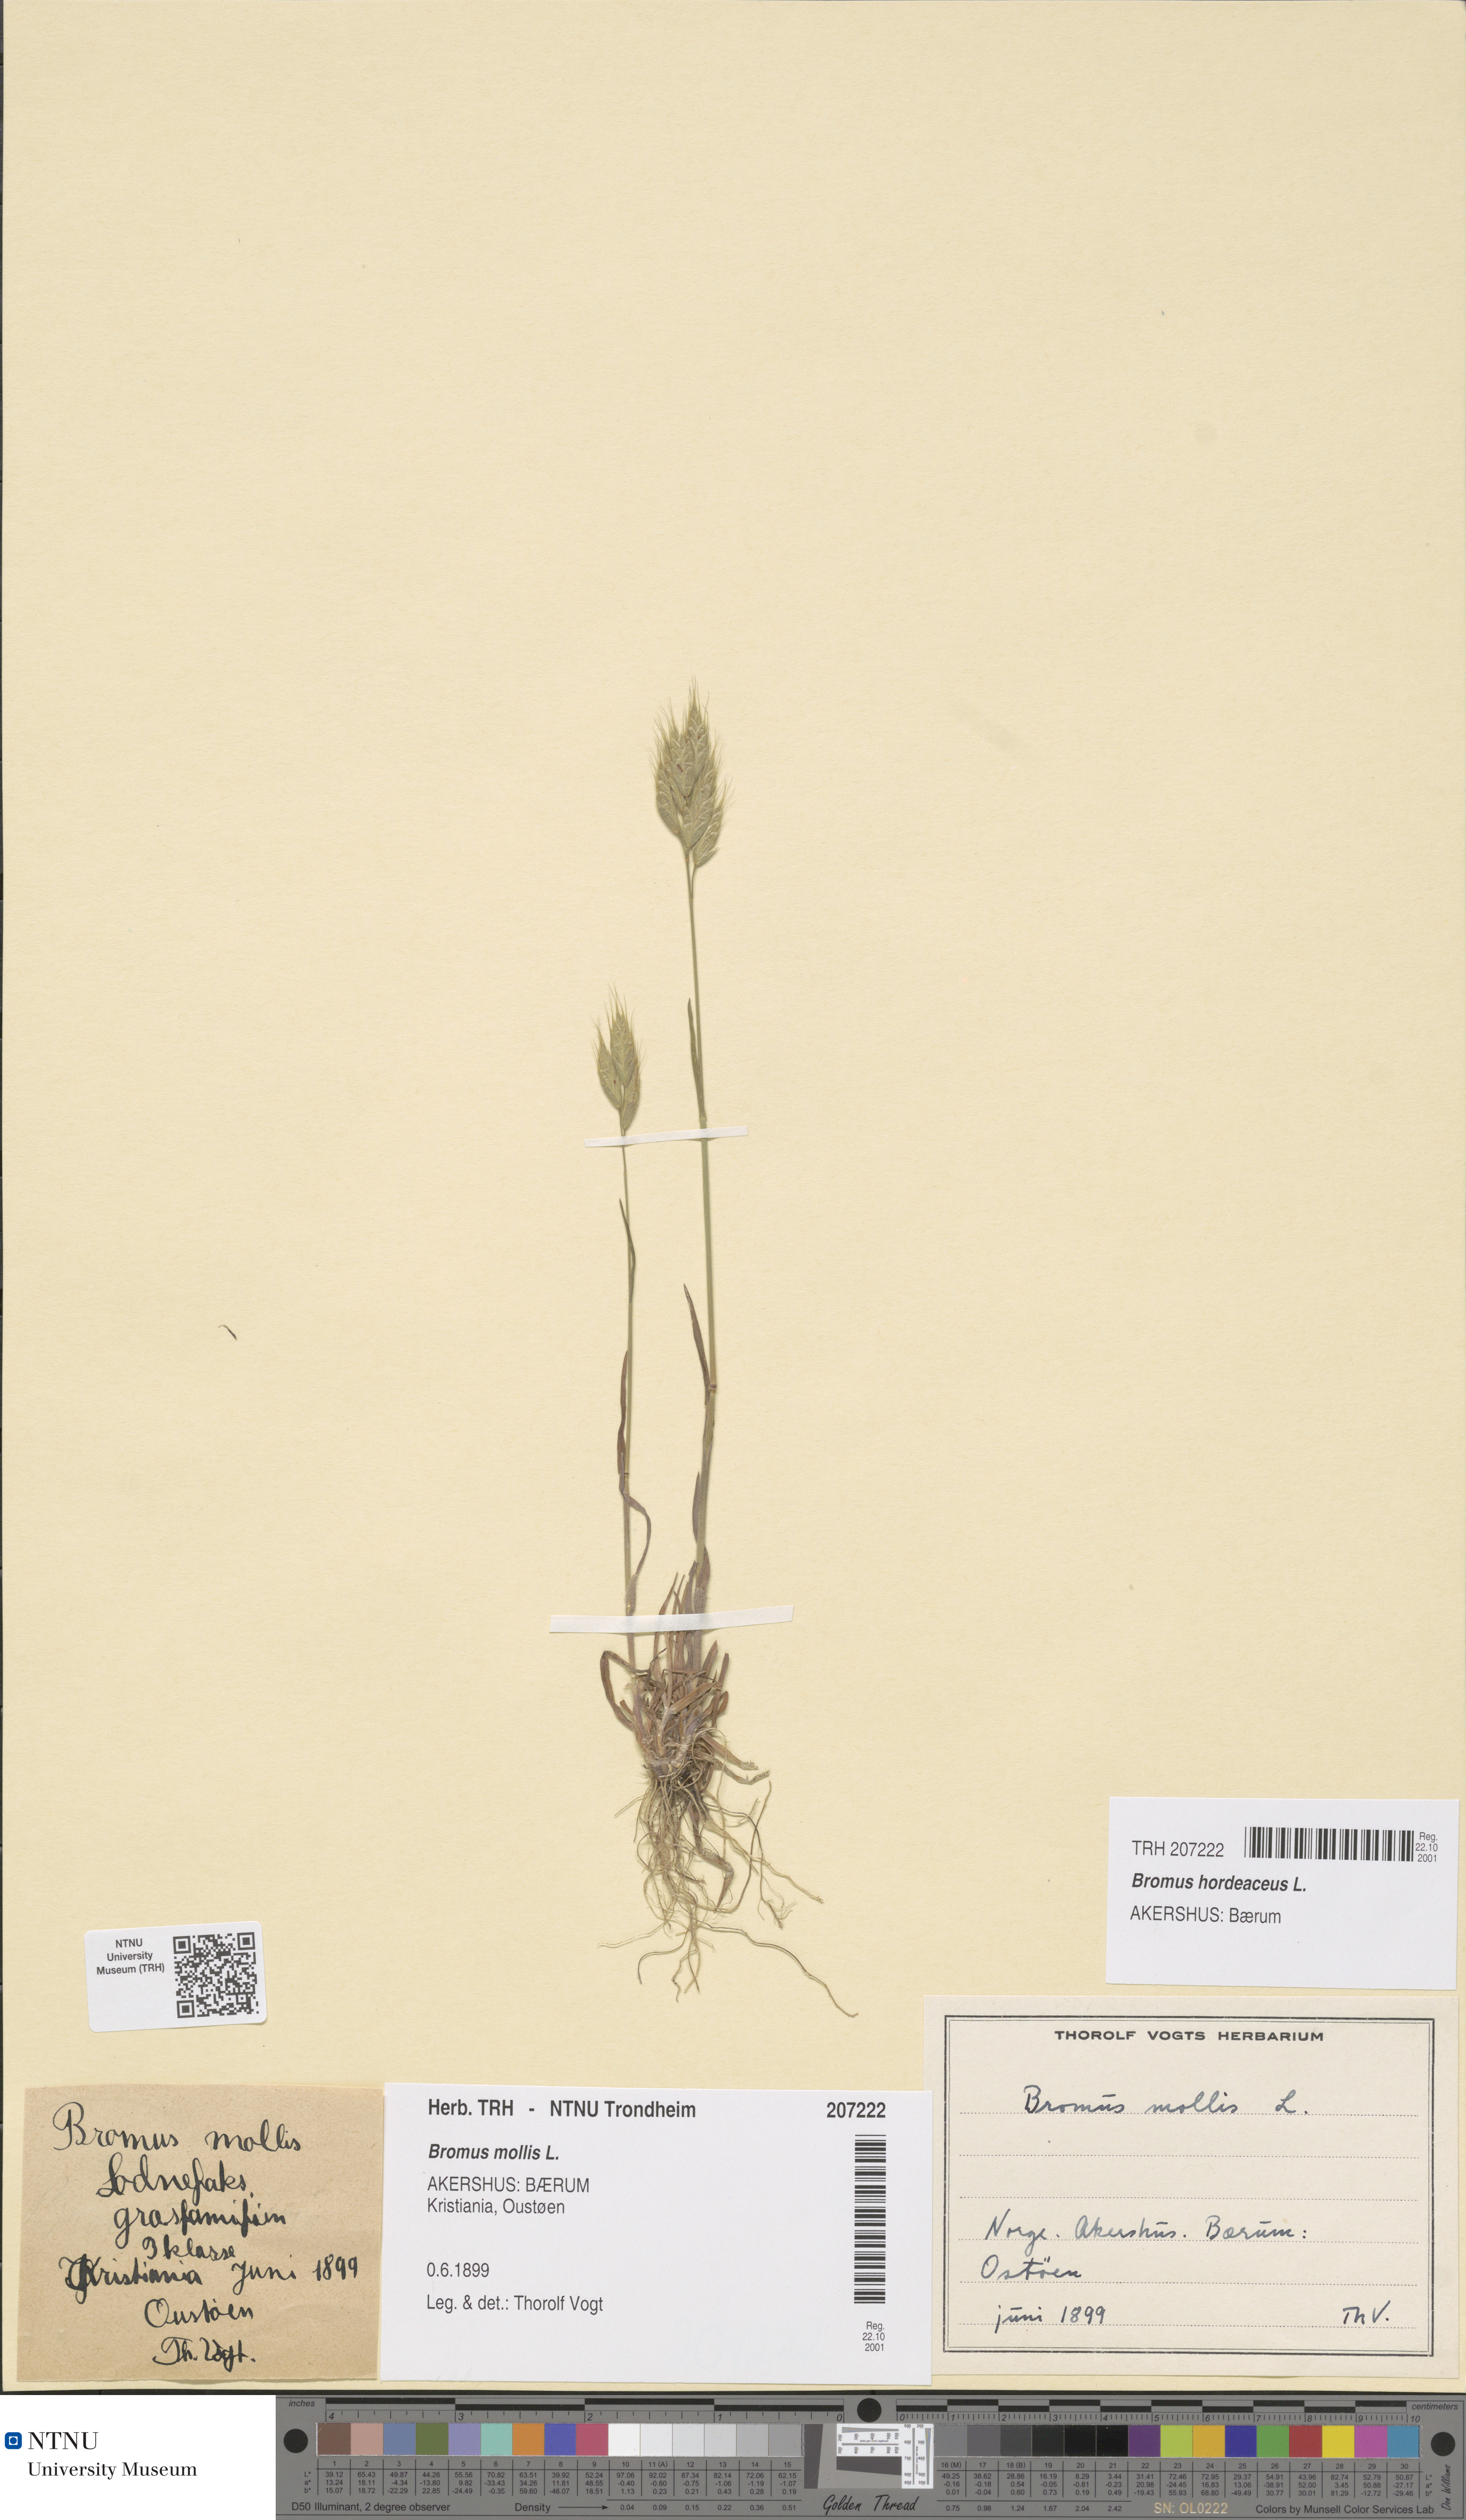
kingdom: Plantae
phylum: Tracheophyta
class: Liliopsida
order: Poales
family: Poaceae
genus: Bromus
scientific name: Bromus hordeaceus
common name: Soft brome
